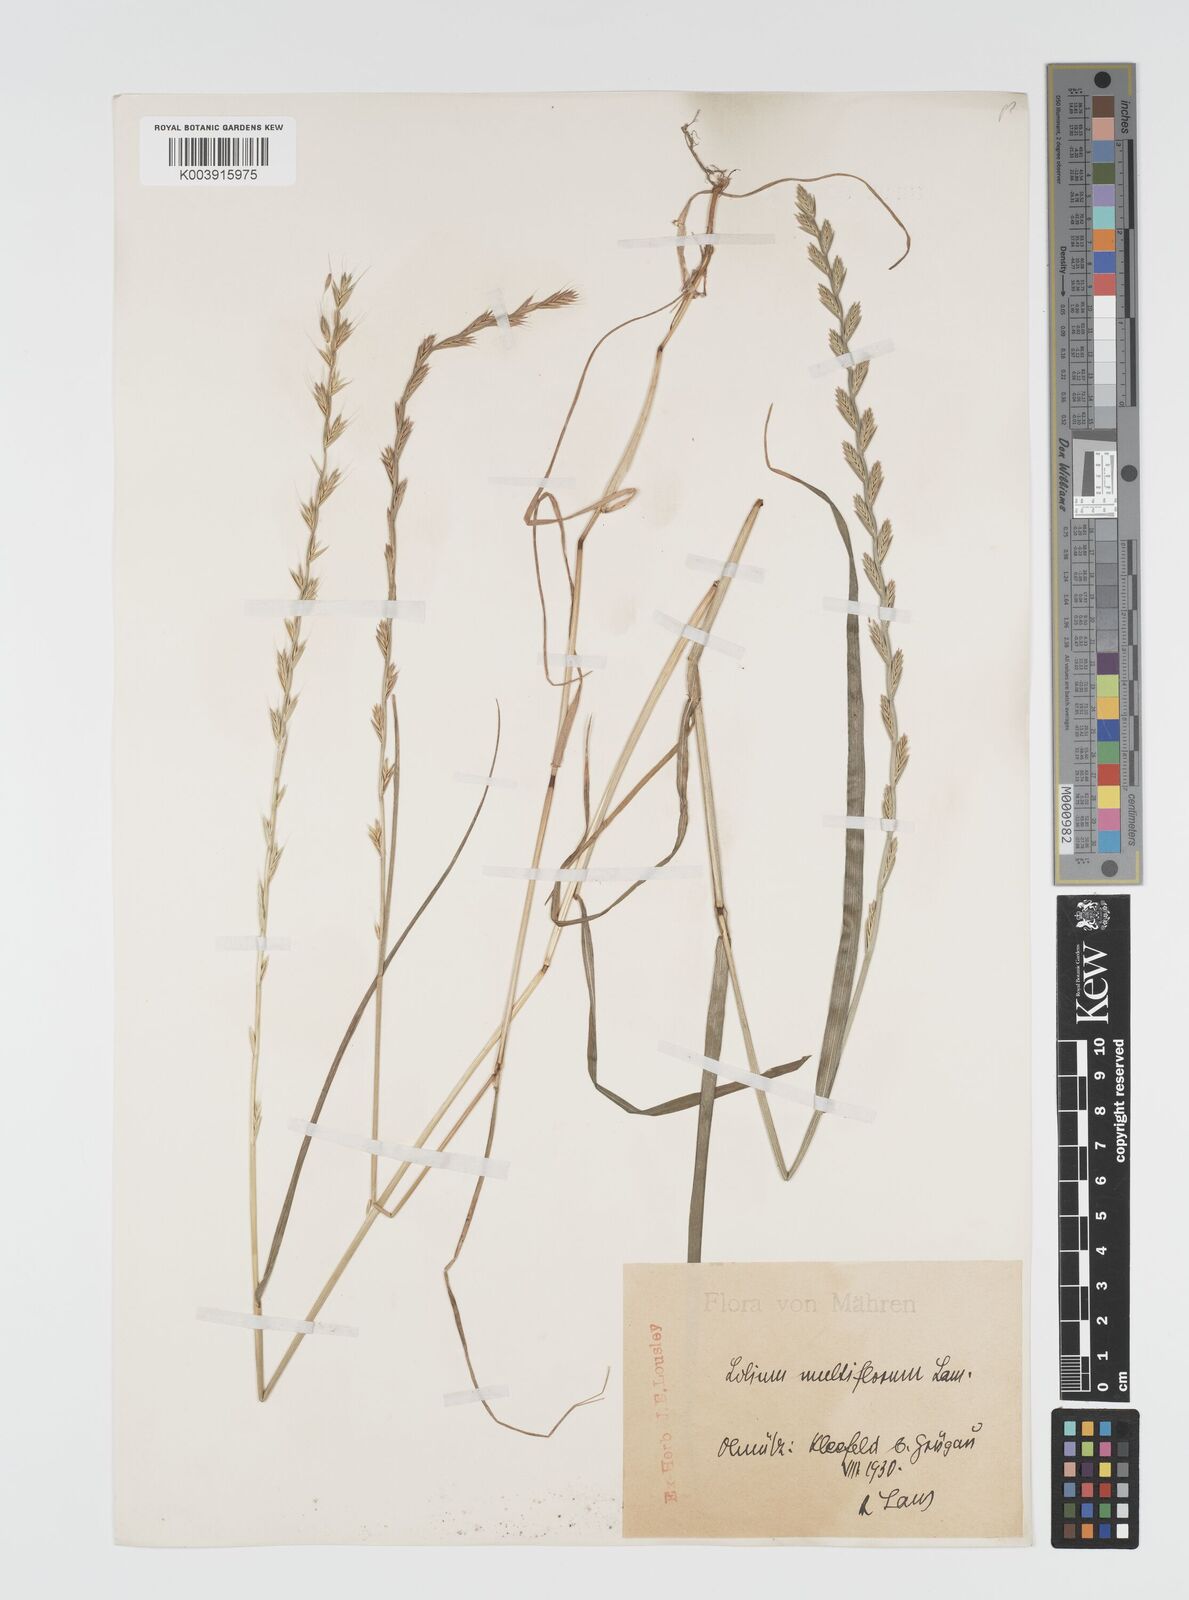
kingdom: Plantae
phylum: Tracheophyta
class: Liliopsida
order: Poales
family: Poaceae
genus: Lolium
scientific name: Lolium multiflorum
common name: Annual ryegrass
